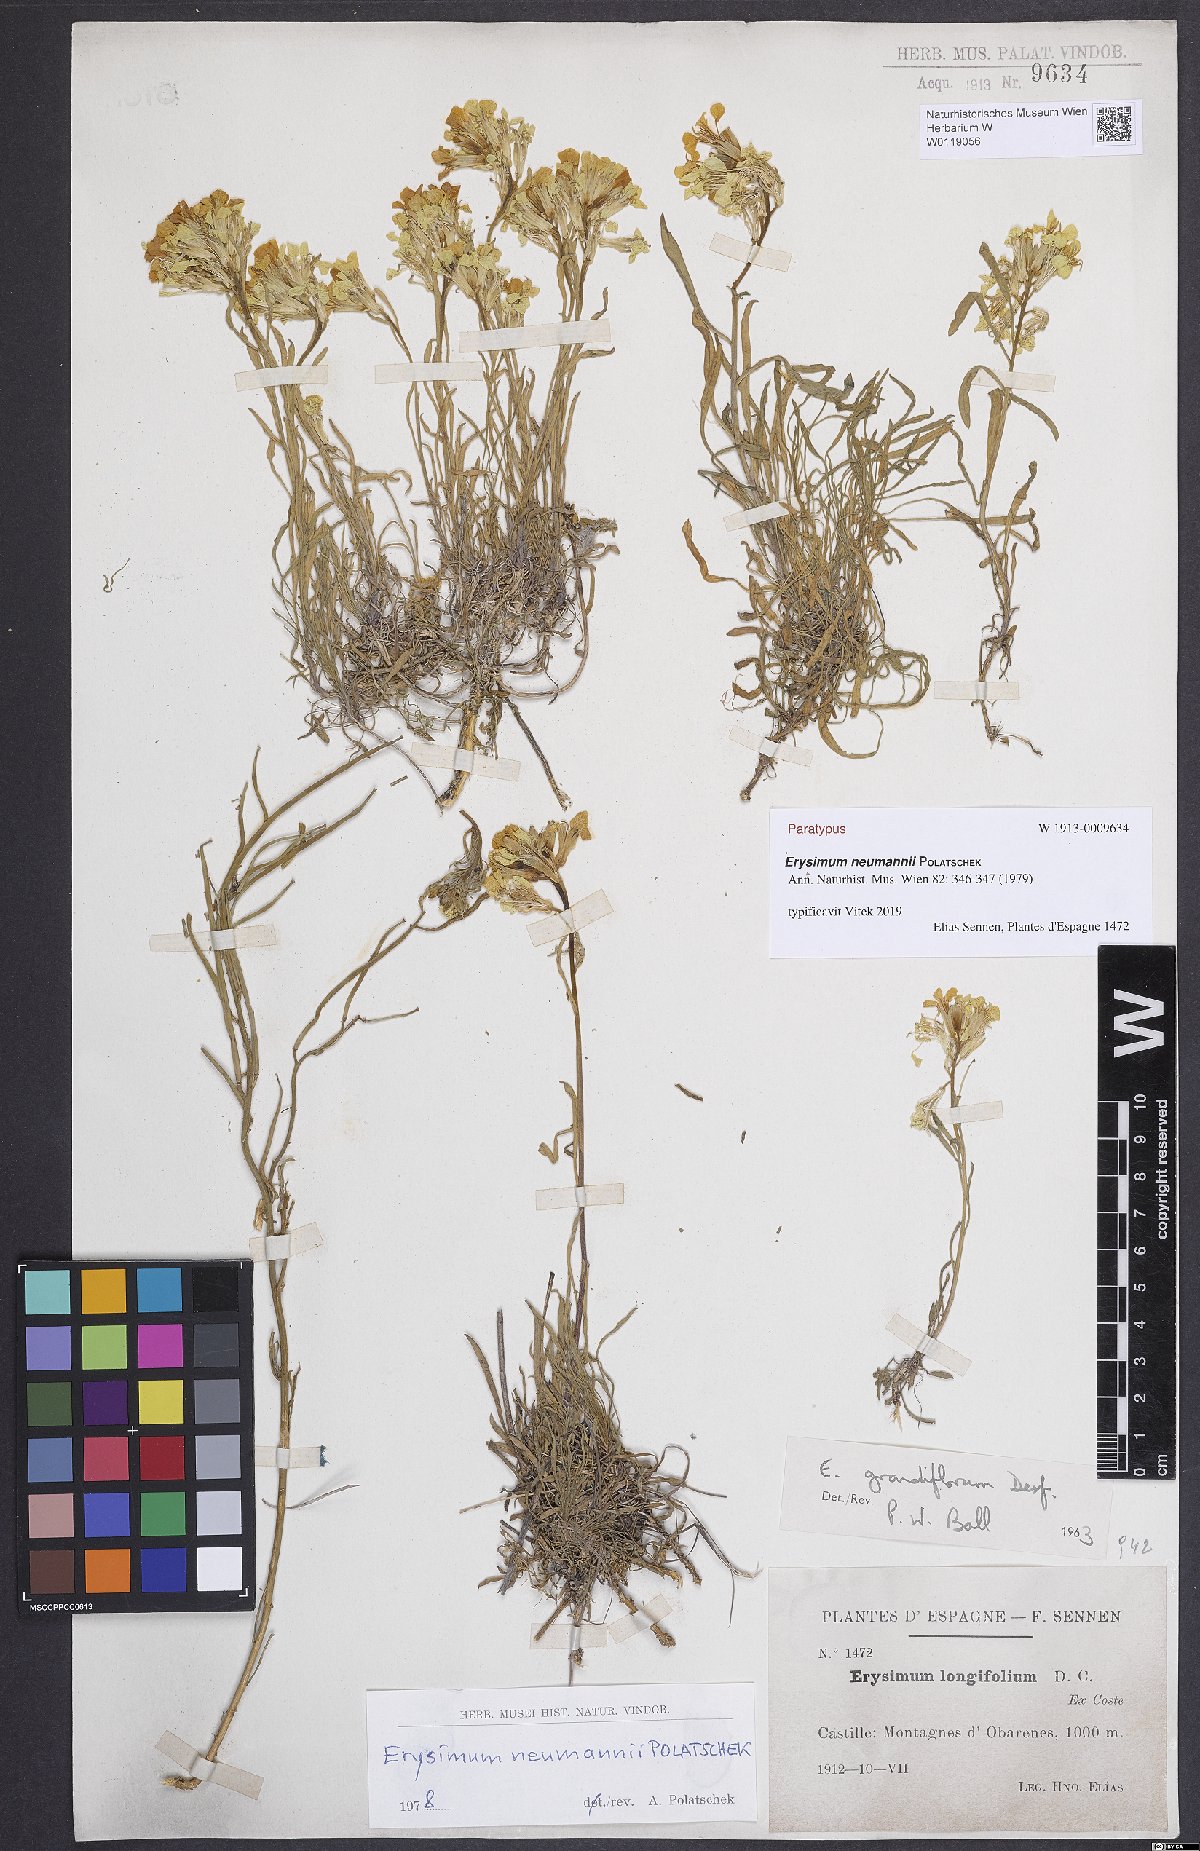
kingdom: Plantae
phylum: Tracheophyta
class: Magnoliopsida
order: Brassicales
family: Brassicaceae
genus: Erysimum
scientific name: Erysimum duriaei
